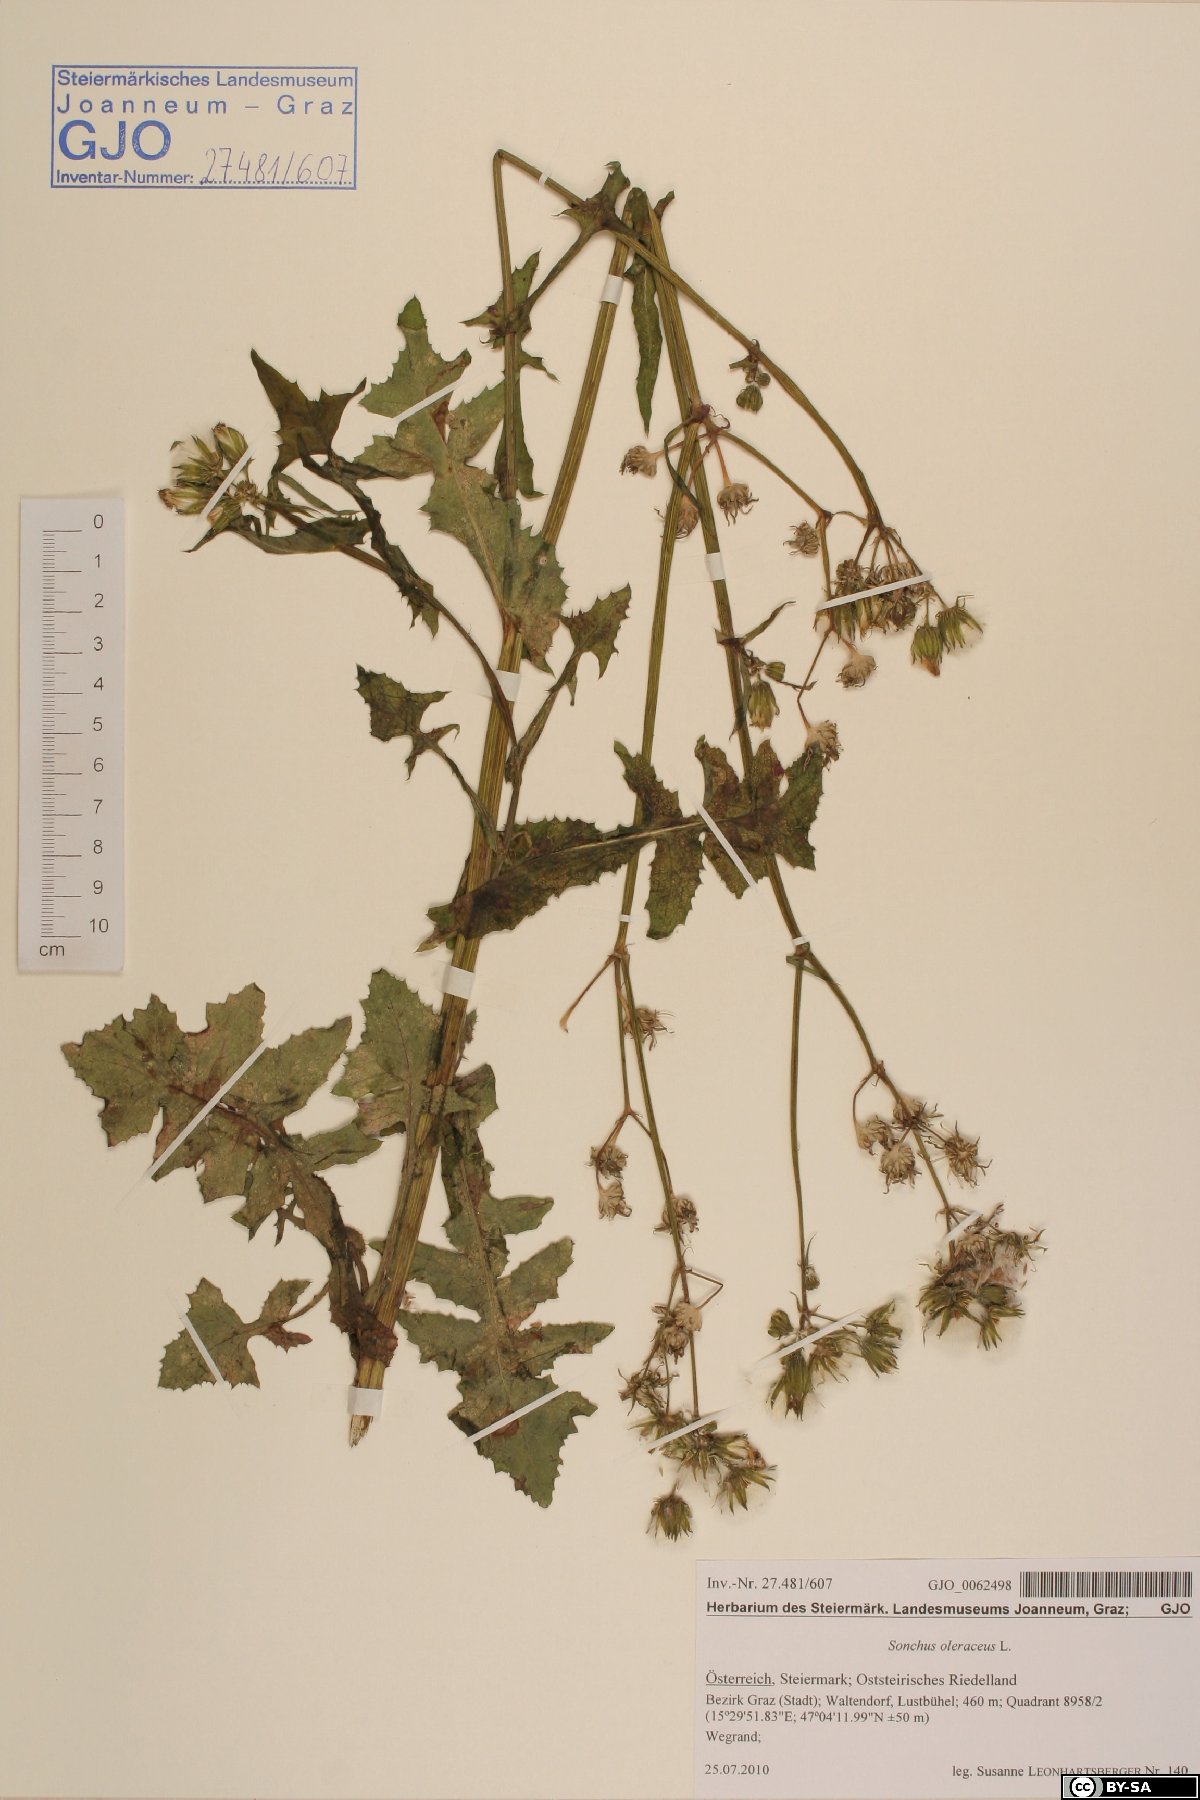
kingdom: Plantae
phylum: Tracheophyta
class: Magnoliopsida
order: Asterales
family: Asteraceae
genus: Sonchus
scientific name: Sonchus oleraceus
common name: Common sowthistle
